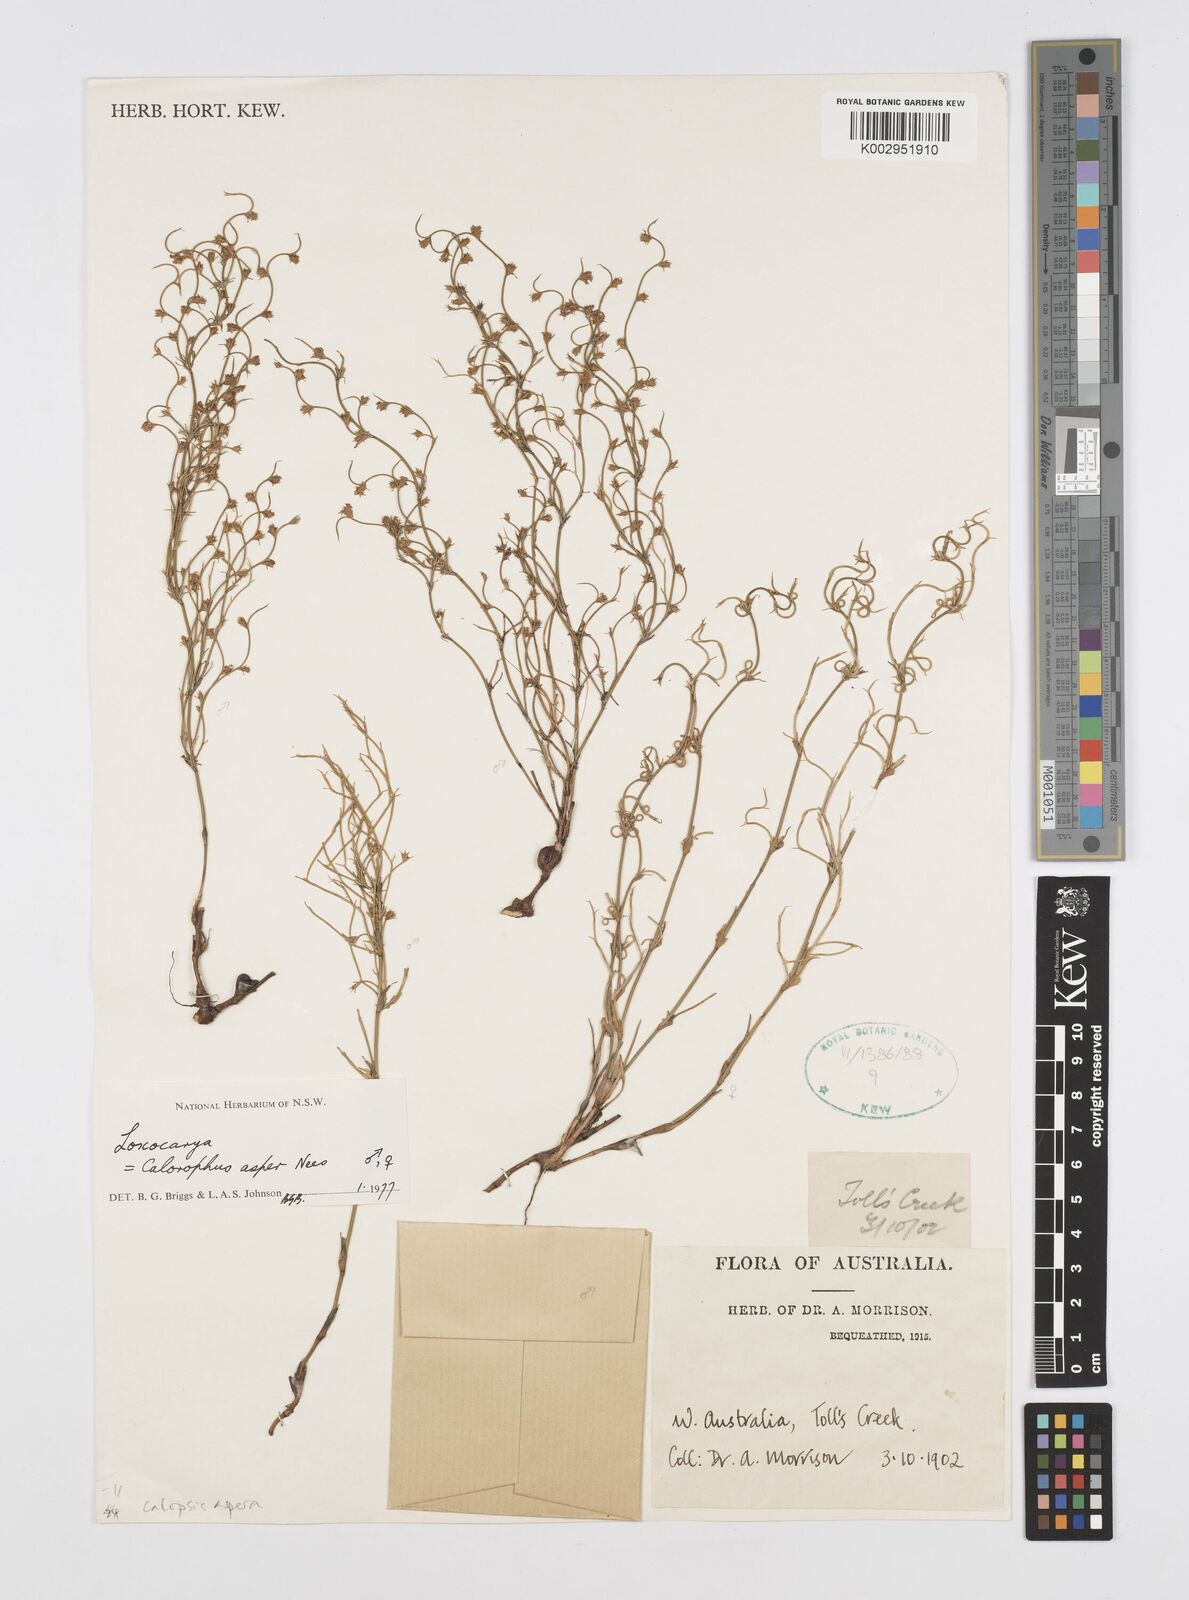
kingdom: Plantae
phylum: Tracheophyta
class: Liliopsida
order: Poales
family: Restionaceae
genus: Restio
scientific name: Restio asperus
